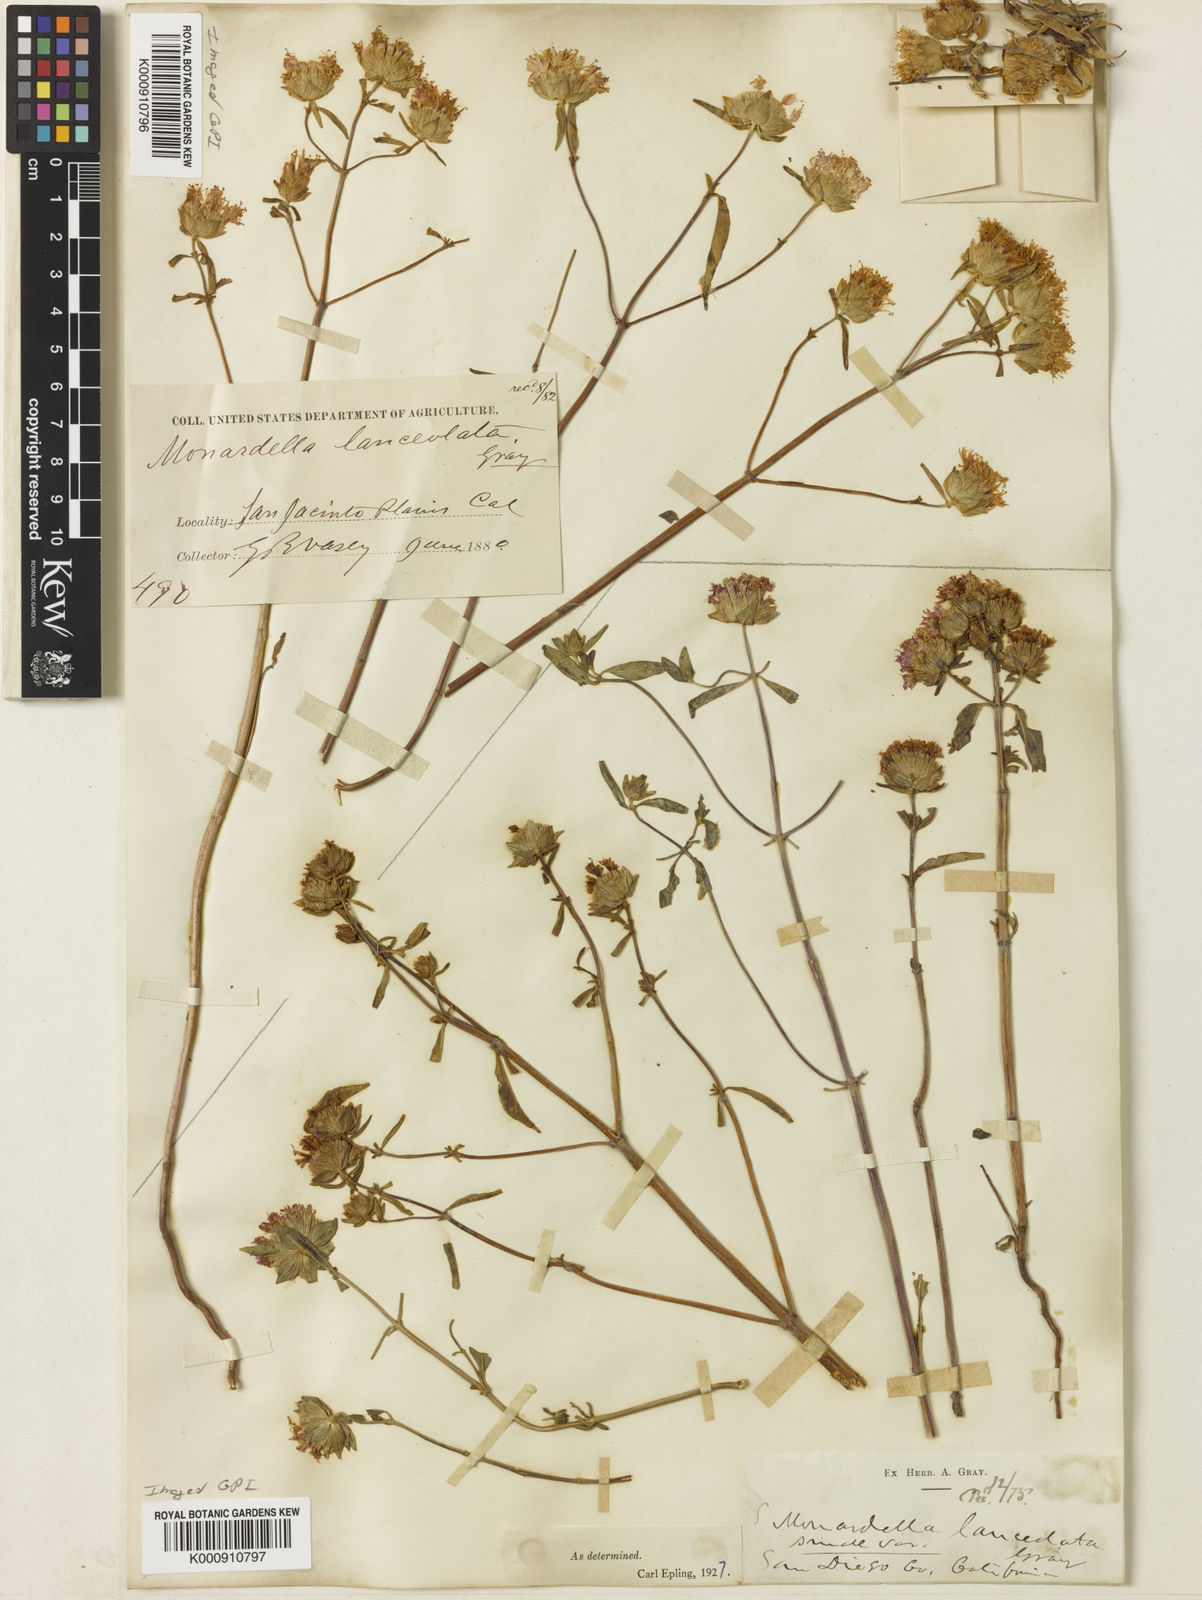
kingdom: Plantae
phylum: Tracheophyta
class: Magnoliopsida
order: Lamiales
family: Lamiaceae
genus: Monardella
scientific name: Monardella breweri
